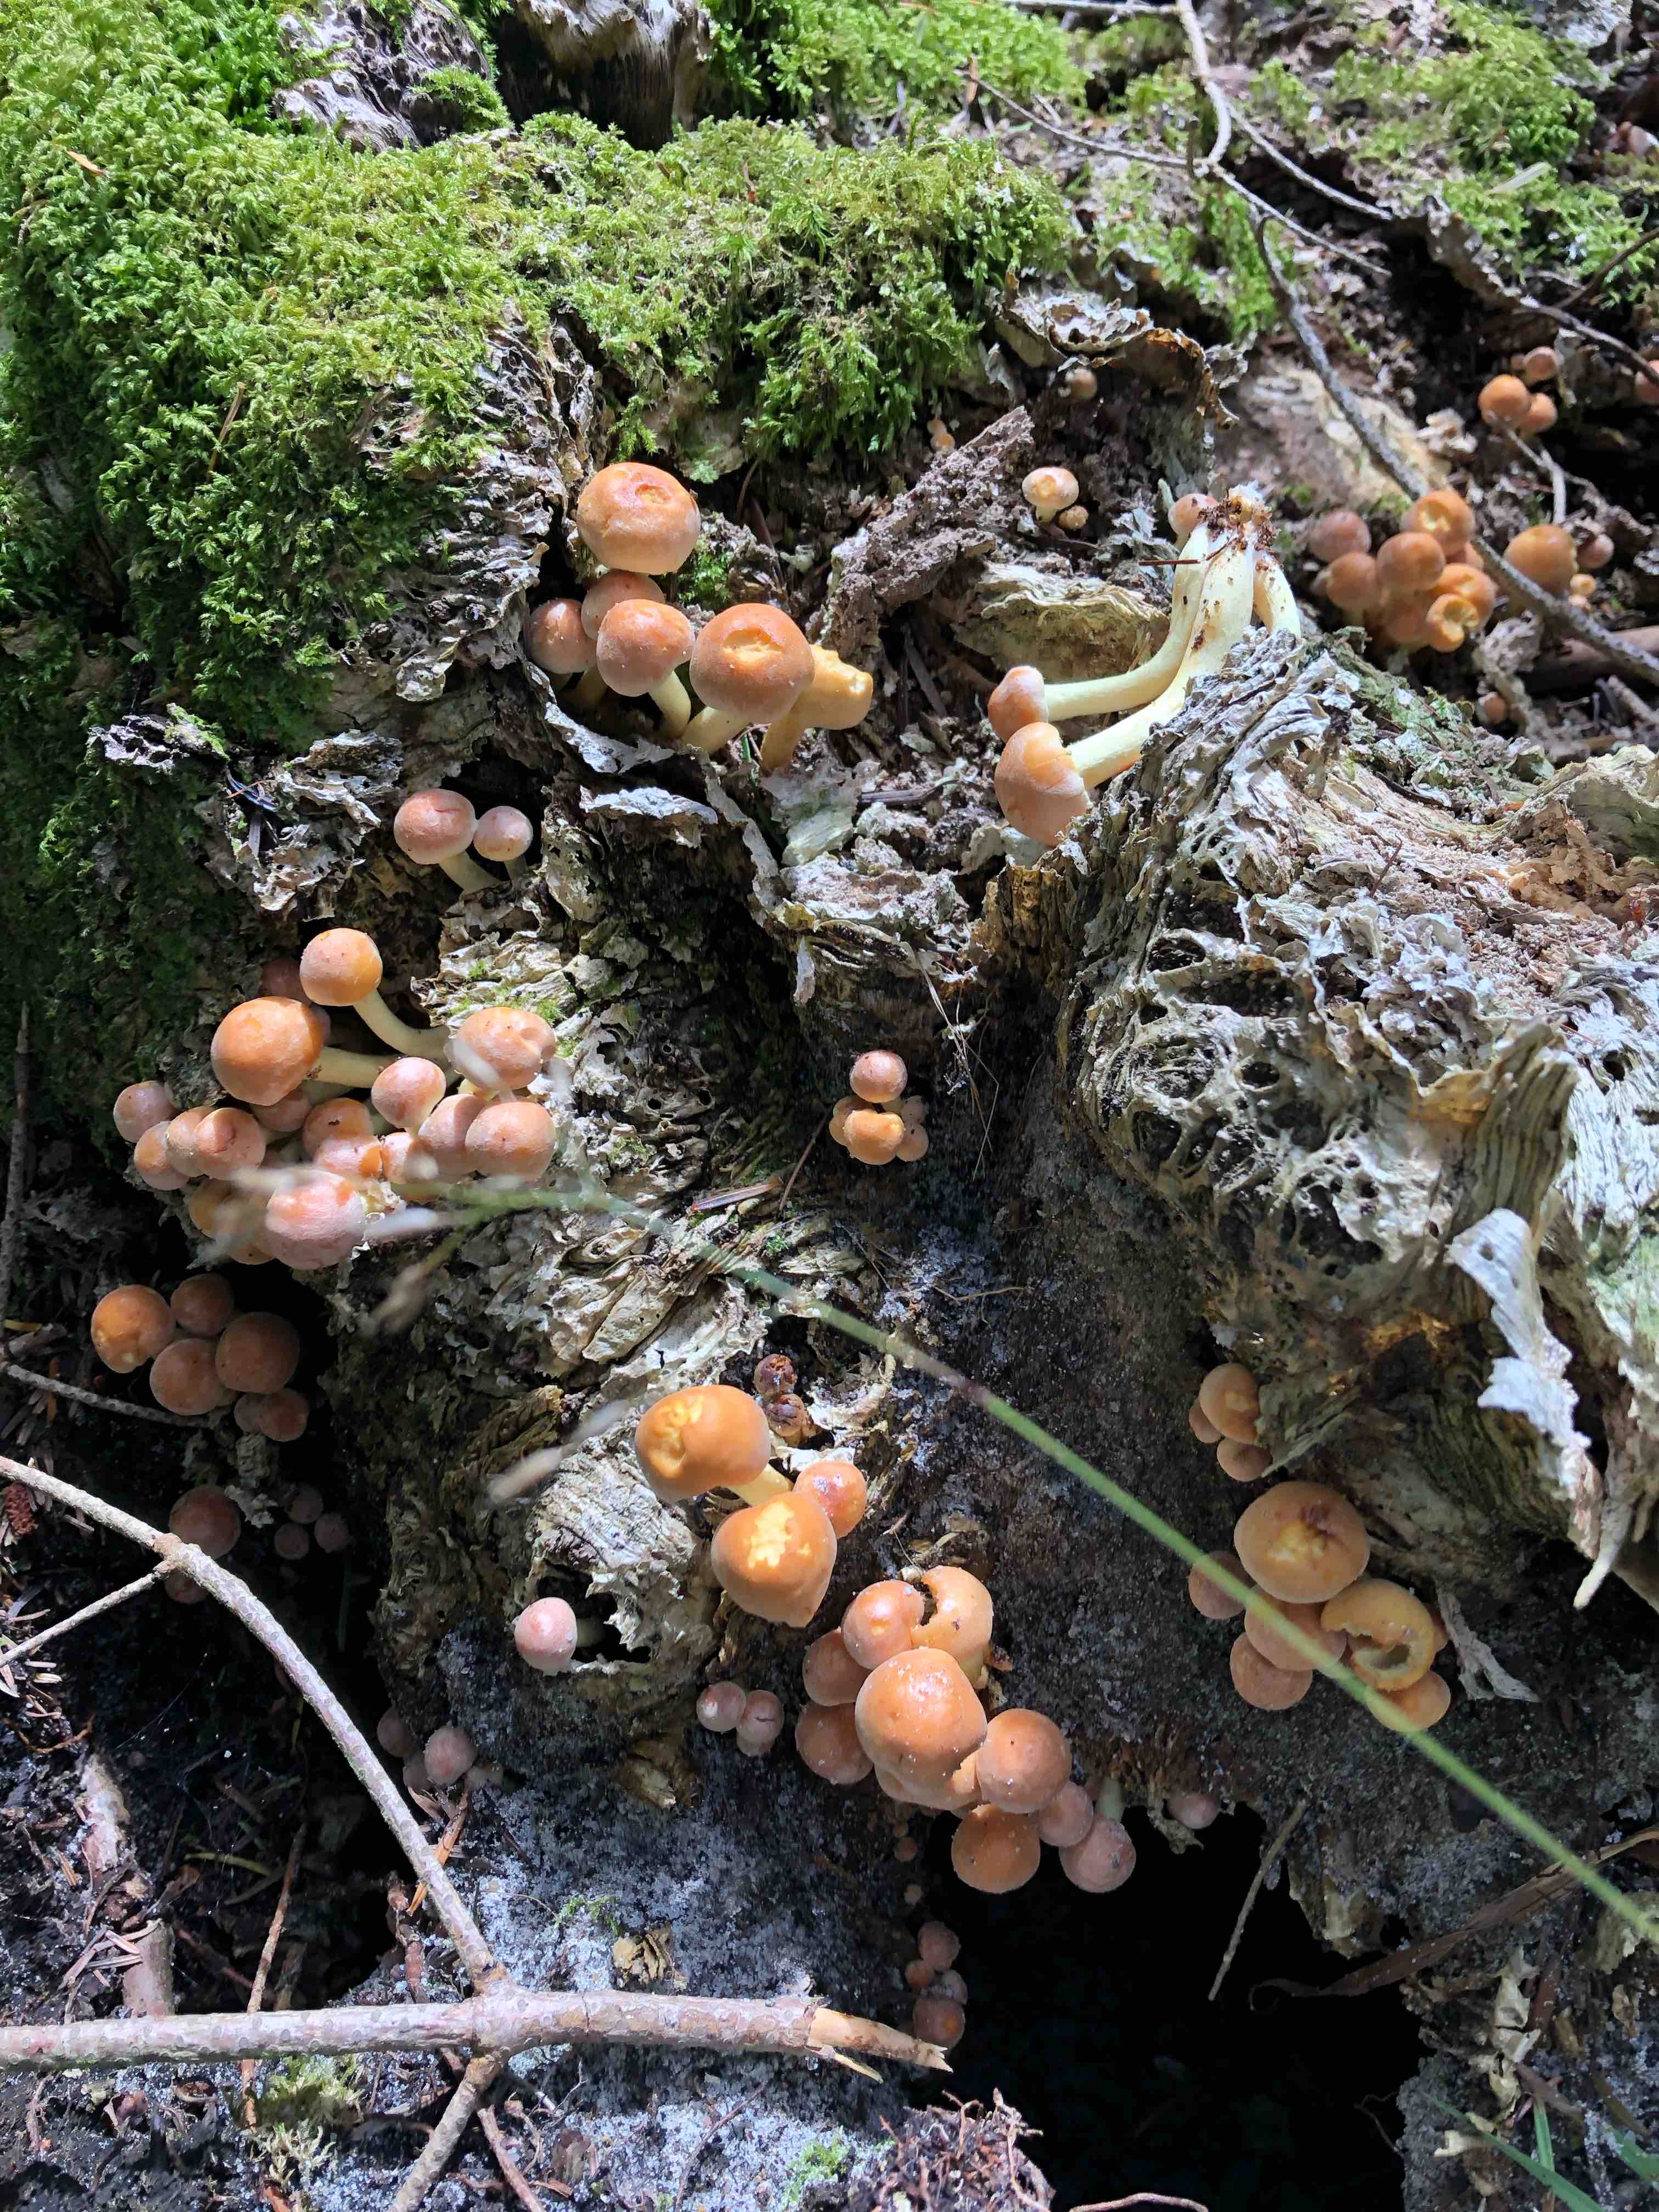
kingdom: Fungi
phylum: Basidiomycota
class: Agaricomycetes
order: Agaricales
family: Strophariaceae
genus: Hypholoma
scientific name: Hypholoma fasciculare
